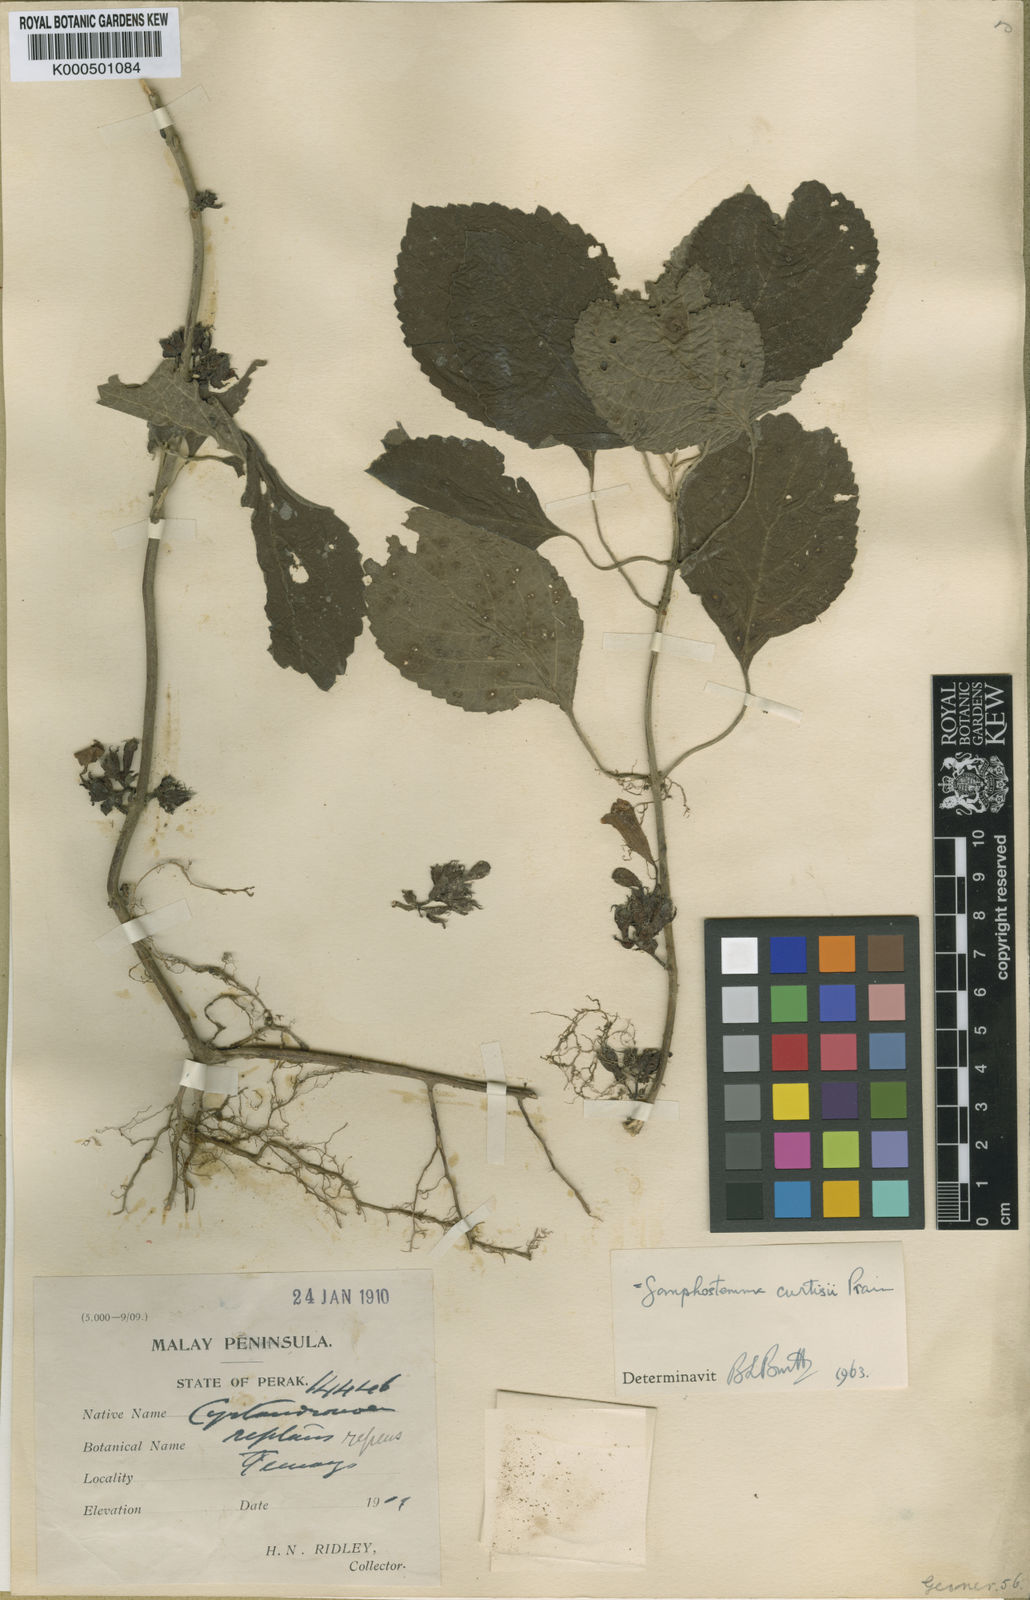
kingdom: Plantae
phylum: Tracheophyta
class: Magnoliopsida
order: Lamiales
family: Lamiaceae
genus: Gomphostemma
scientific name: Gomphostemma curtisii
